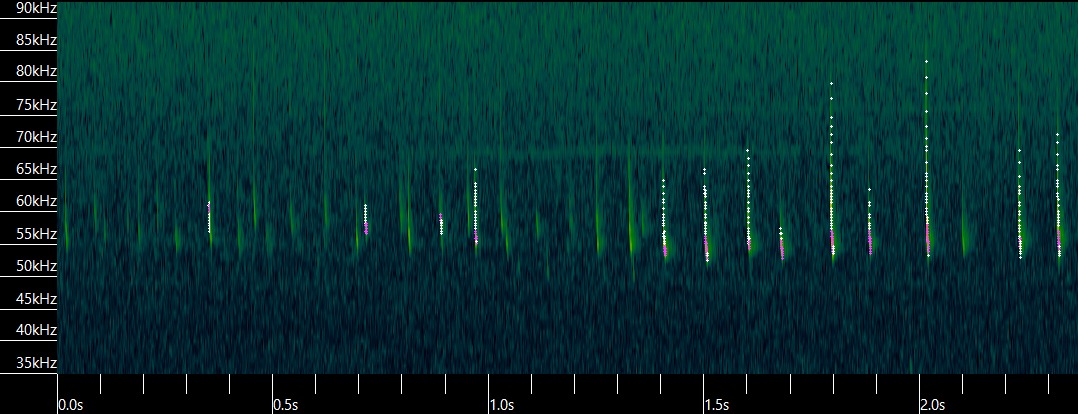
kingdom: Animalia
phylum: Chordata
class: Mammalia
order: Chiroptera
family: Vespertilionidae
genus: Pipistrellus
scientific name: Pipistrellus pygmaeus
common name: Dværgflagermus
